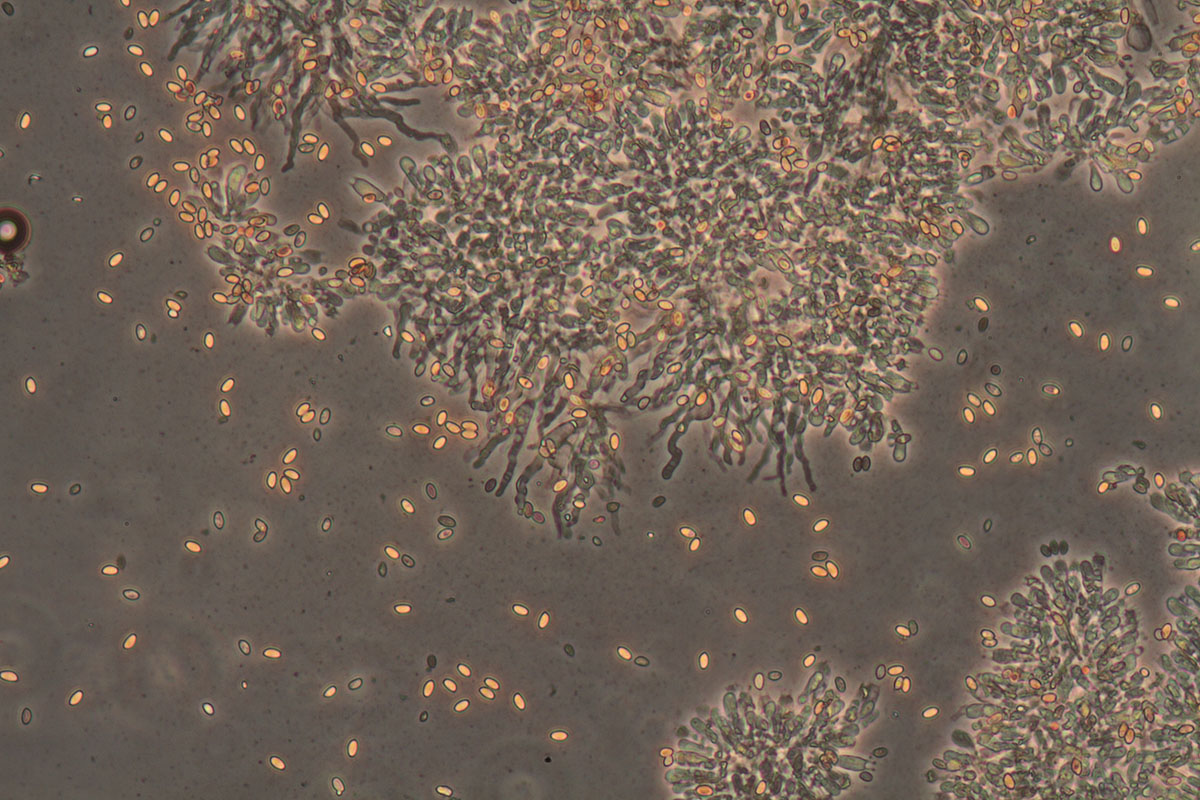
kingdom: Fungi
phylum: Basidiomycota
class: Agaricomycetes
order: Agaricales
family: Bolbitiaceae
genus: Conocybe
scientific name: Conocybe vestita
